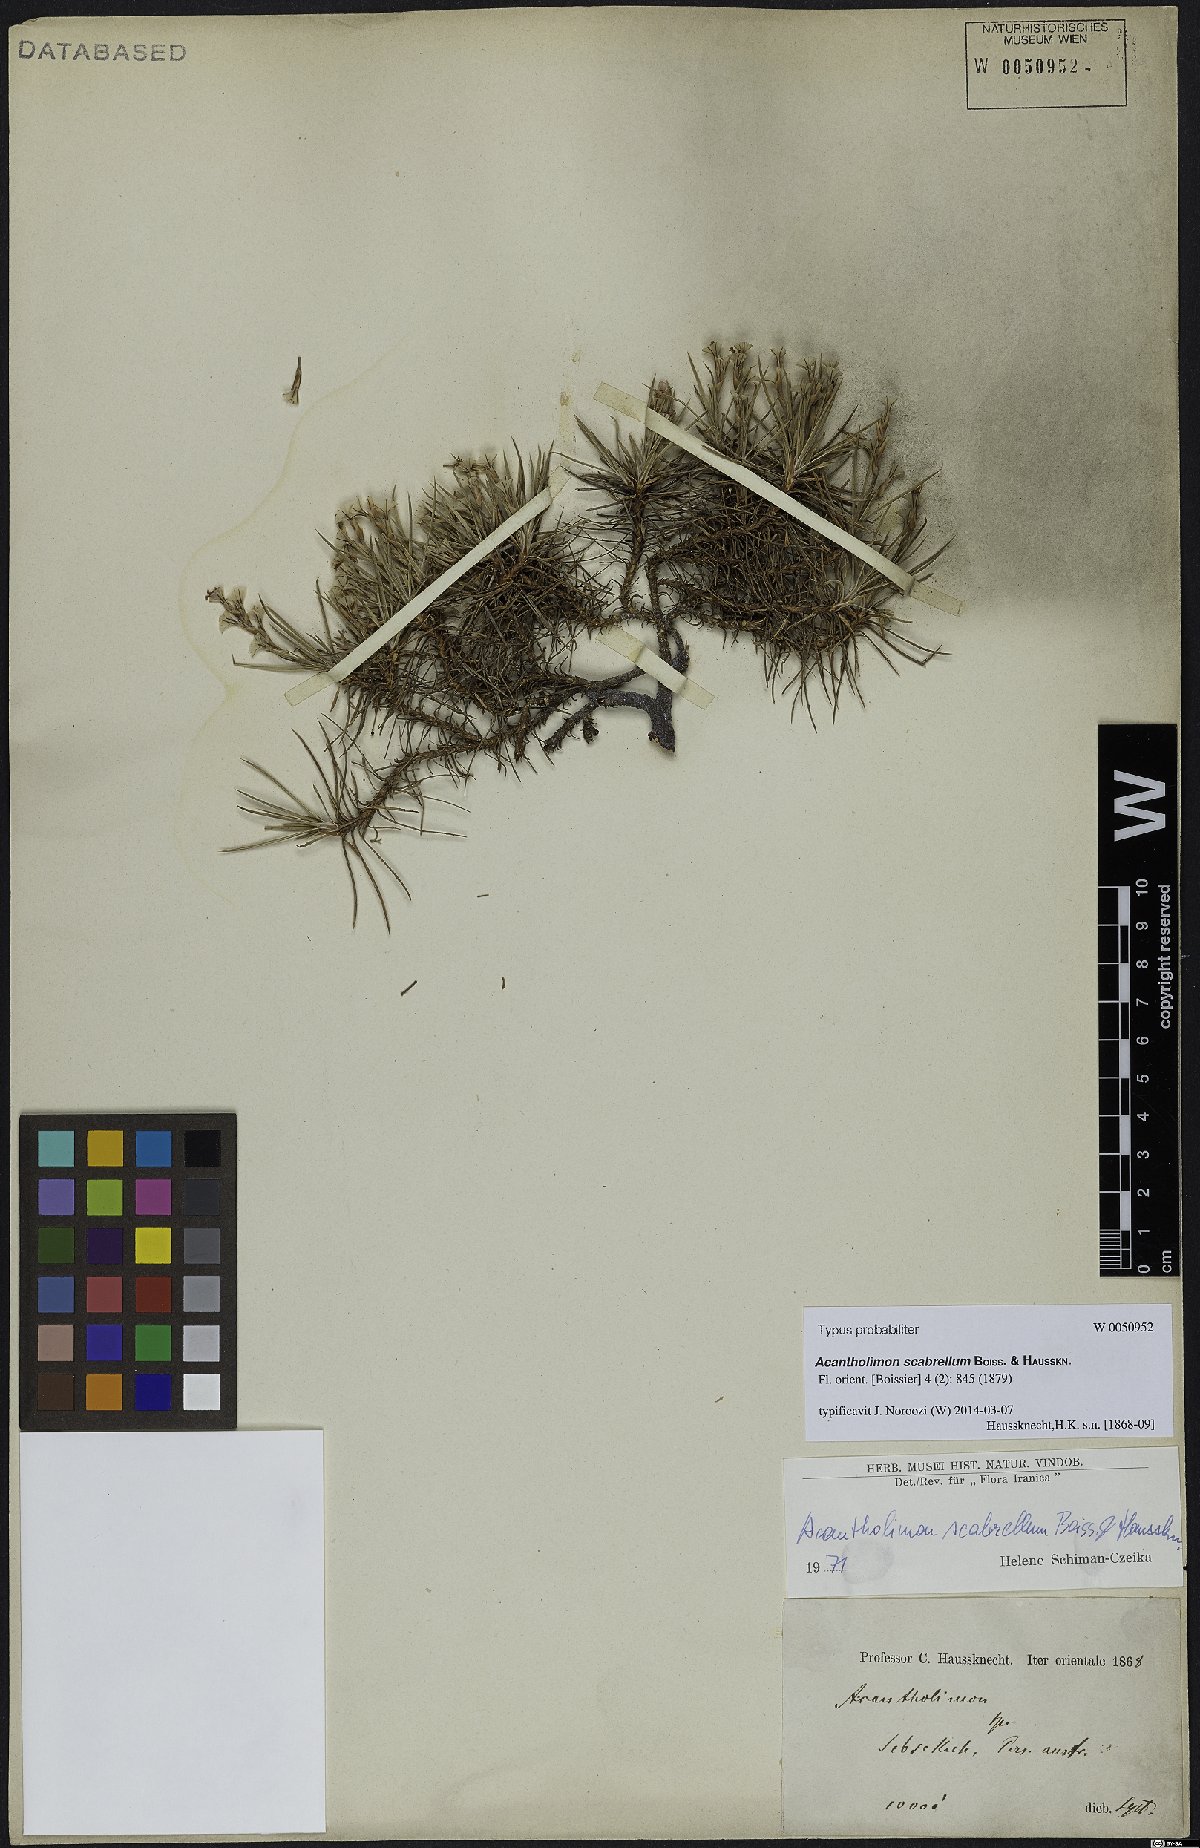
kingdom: Plantae
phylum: Tracheophyta
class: Magnoliopsida
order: Caryophyllales
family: Plumbaginaceae
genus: Acantholimon
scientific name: Acantholimon scabrellum
